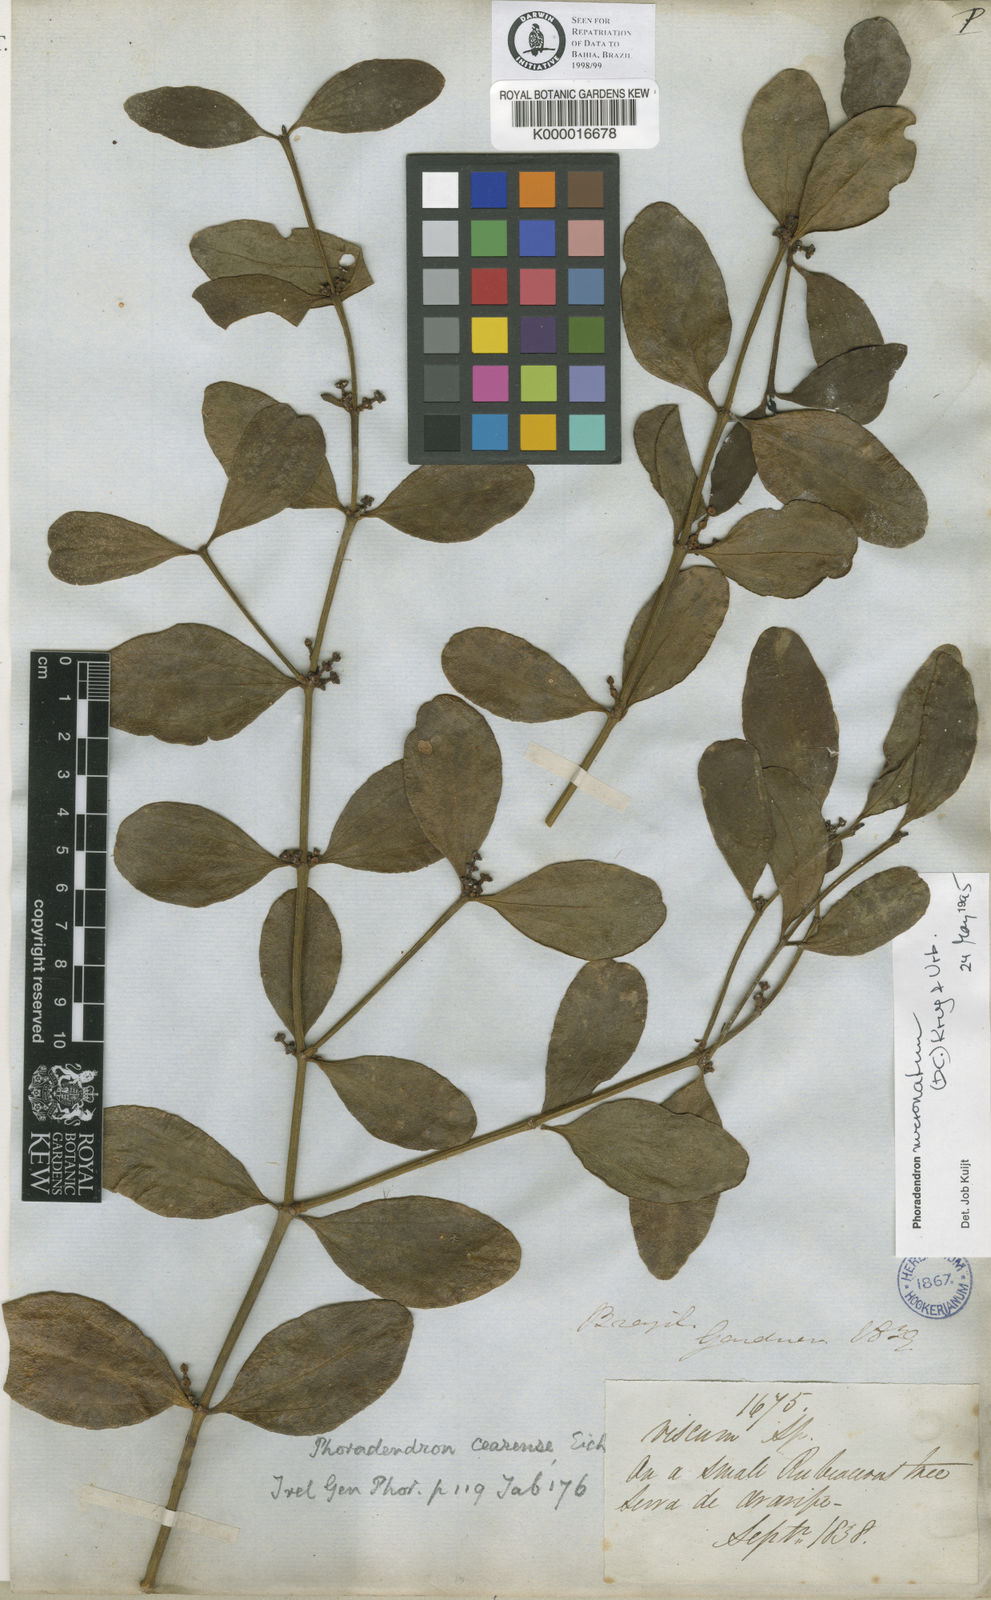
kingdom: Plantae
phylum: Tracheophyta
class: Magnoliopsida
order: Santalales
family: Viscaceae
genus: Phoradendron
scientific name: Phoradendron mucronatum
